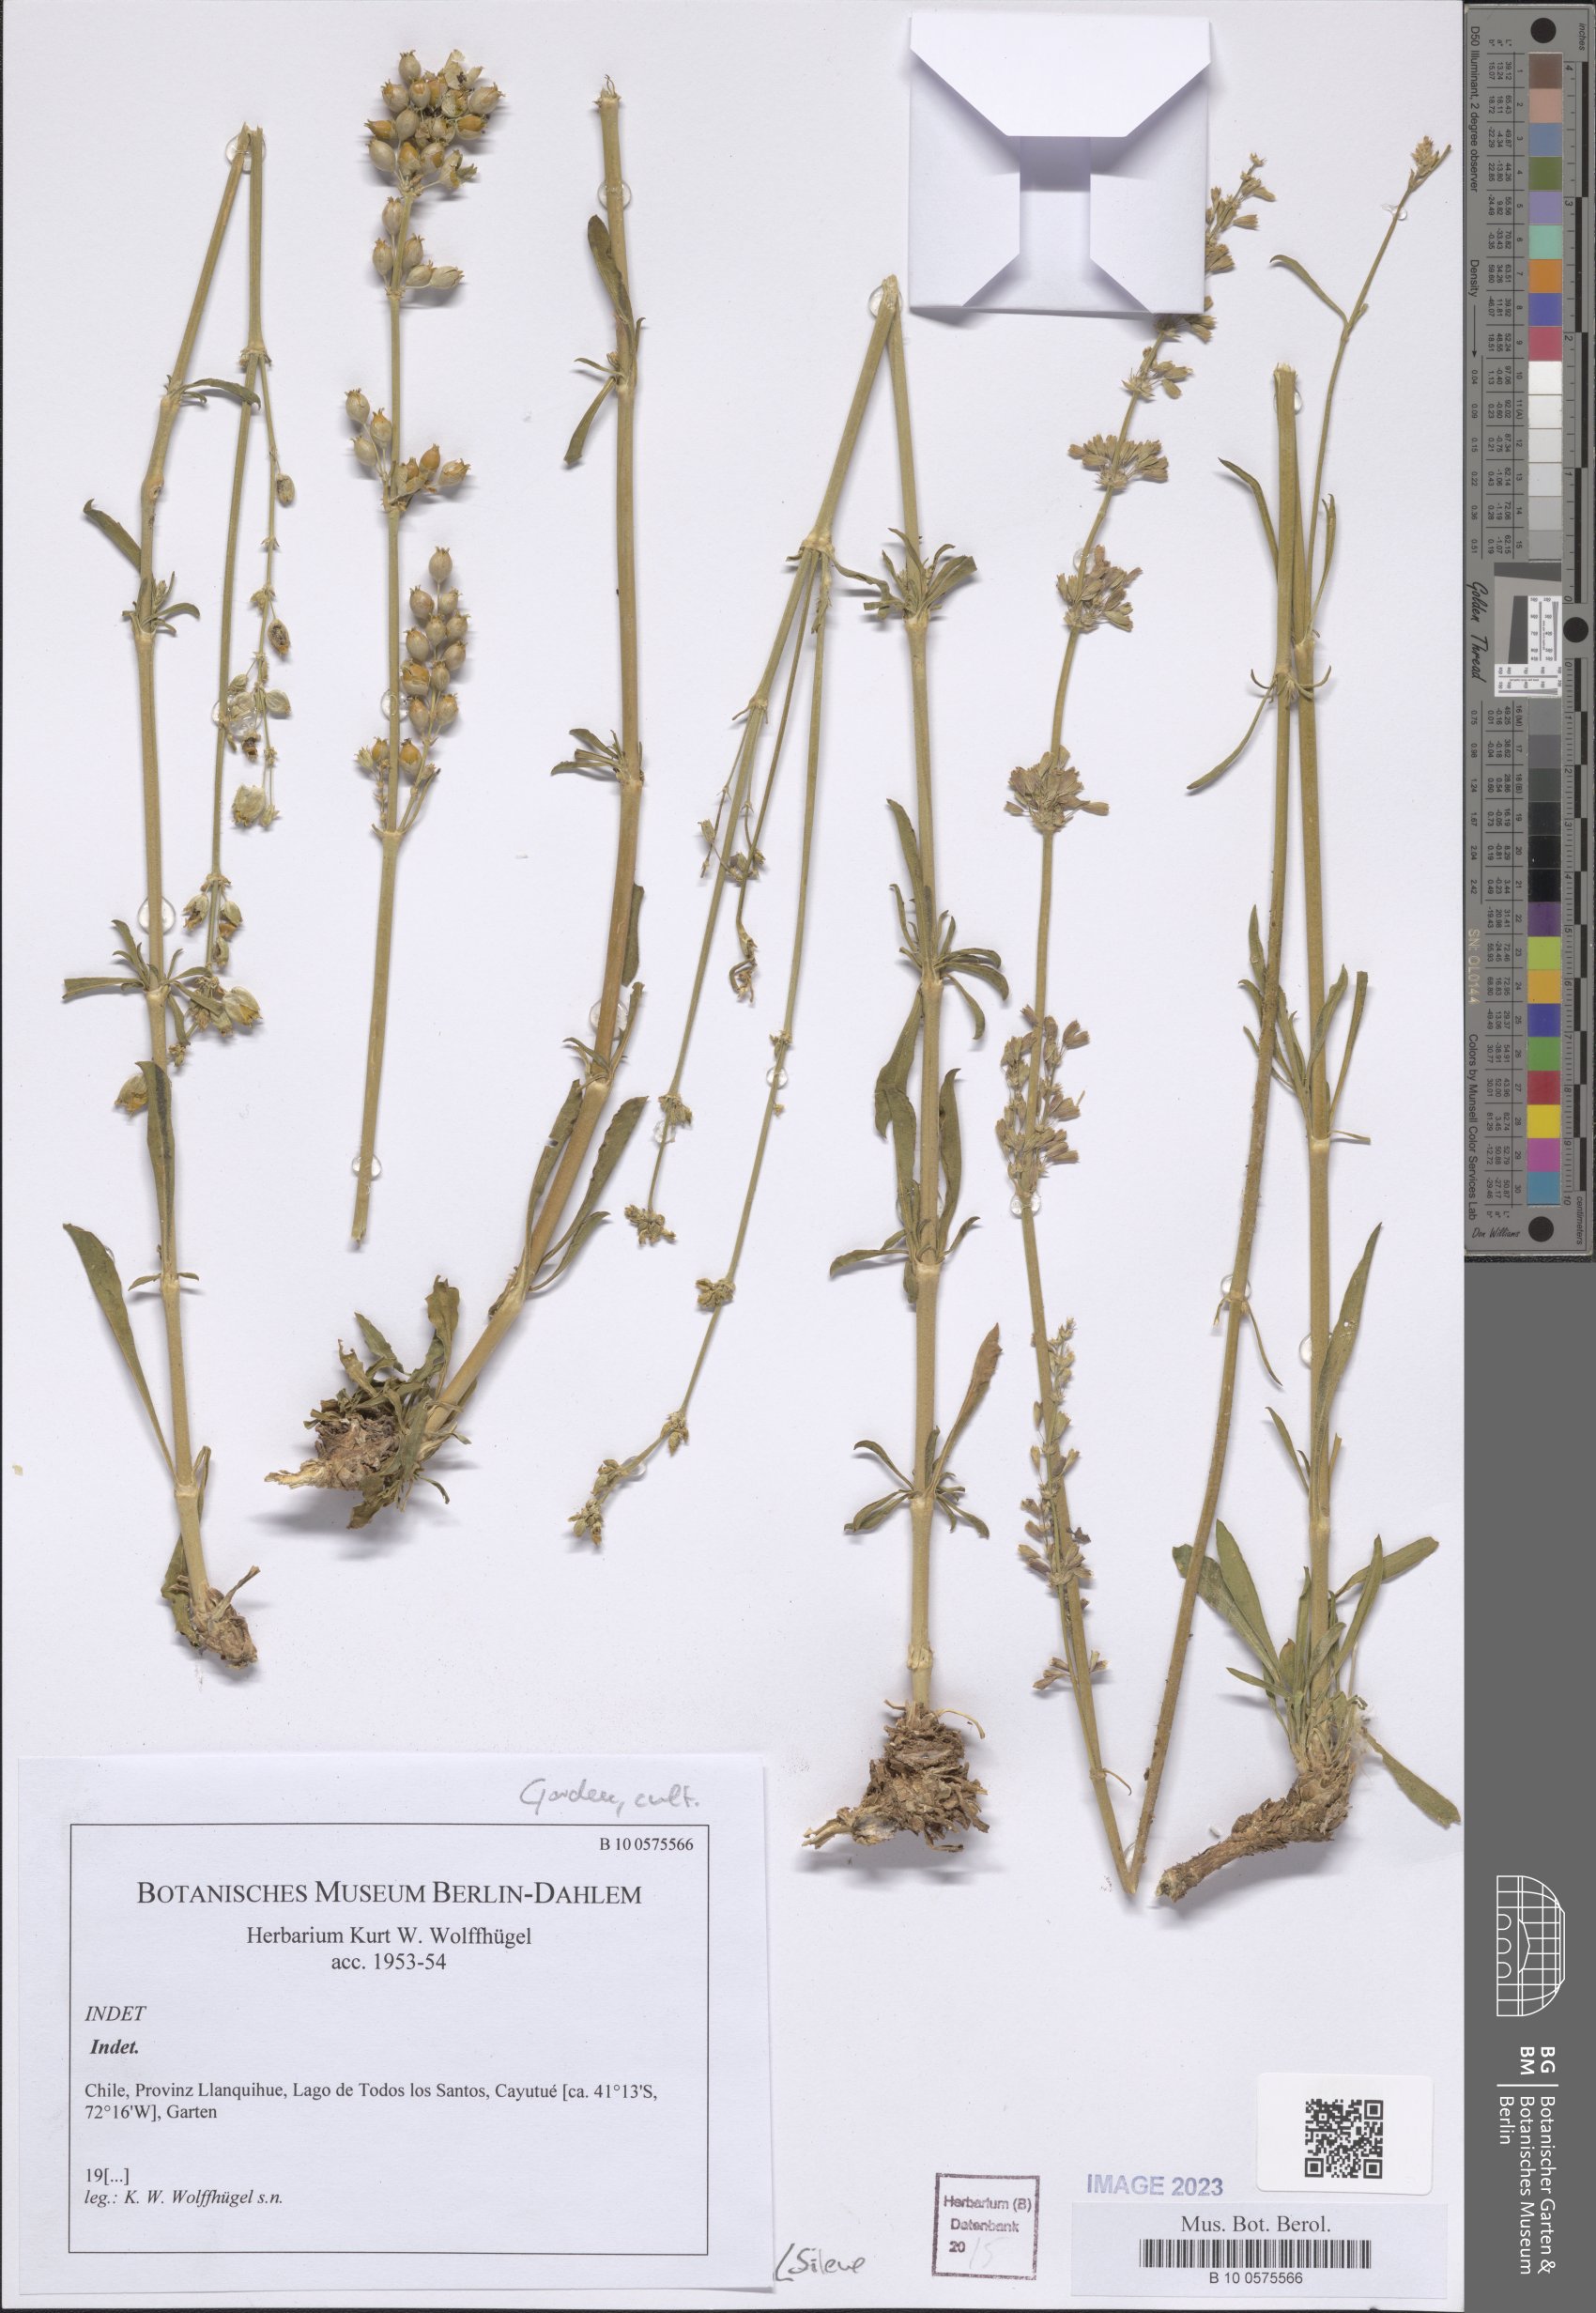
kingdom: Plantae
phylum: Tracheophyta
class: Magnoliopsida
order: Caryophyllales
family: Caryophyllaceae
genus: Silene
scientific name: Silene
